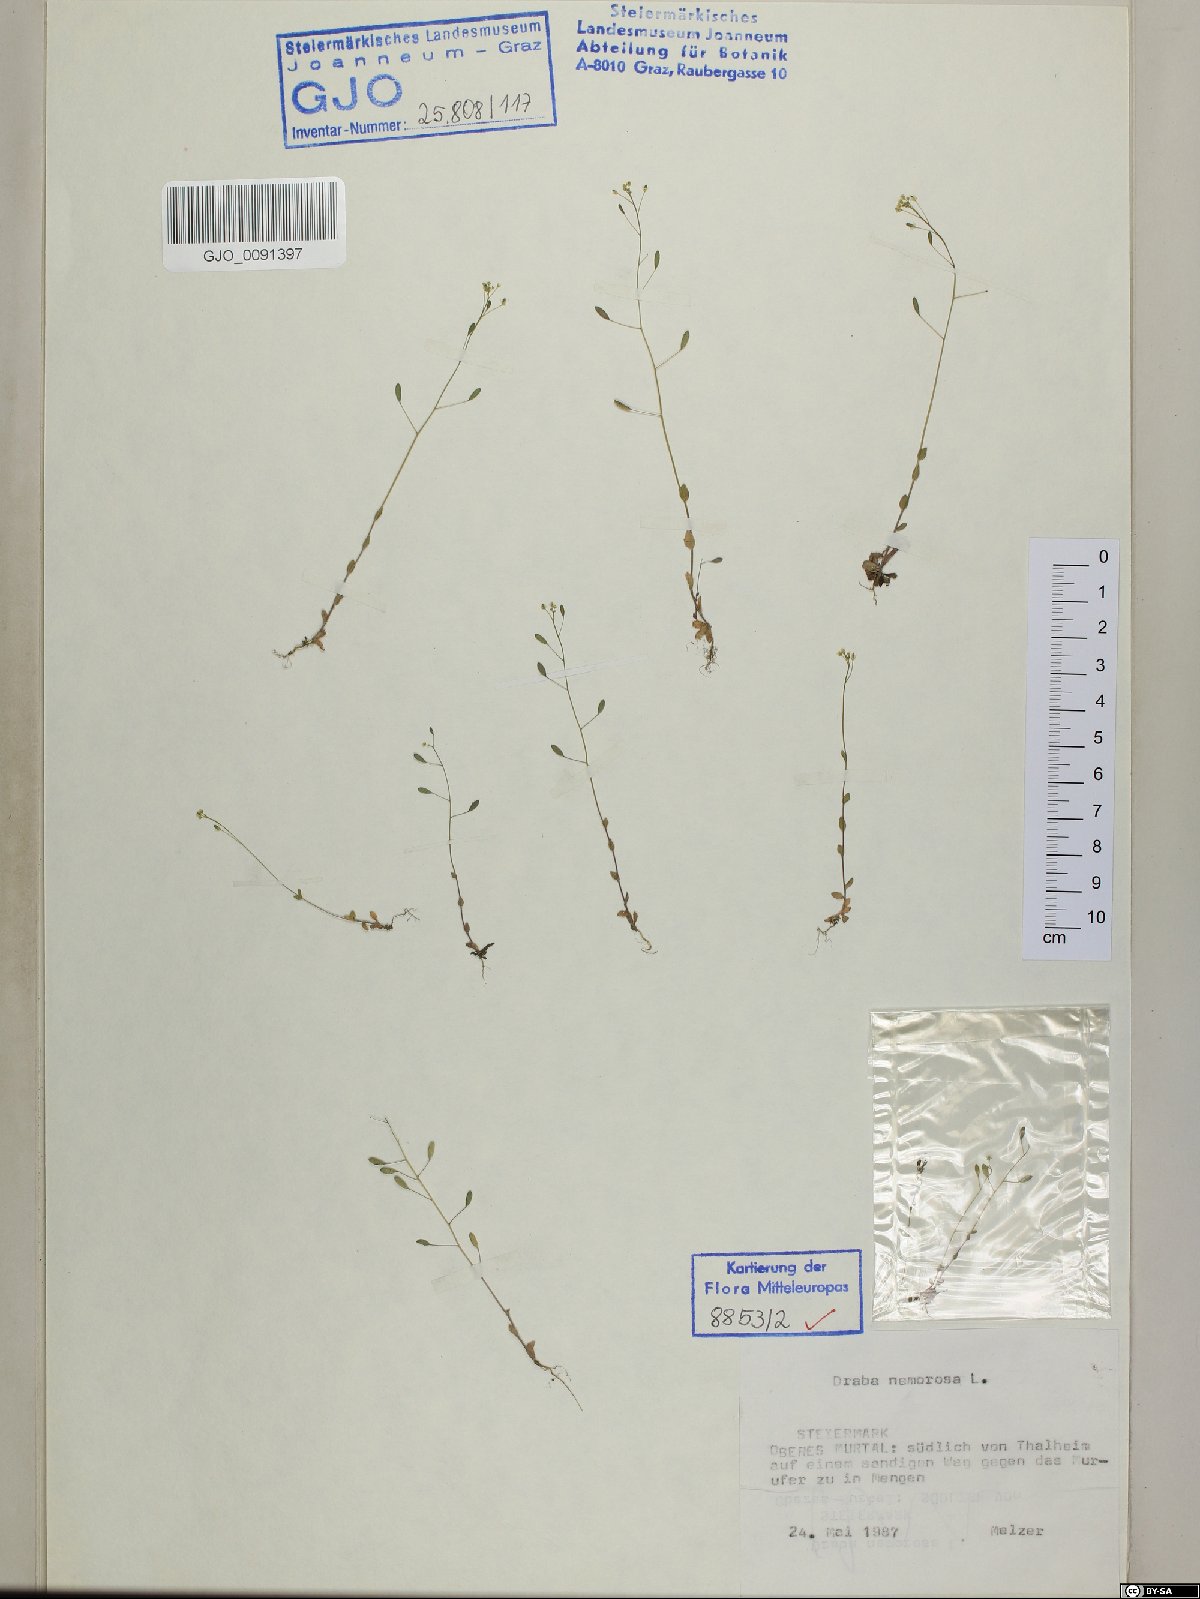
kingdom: Plantae
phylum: Tracheophyta
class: Magnoliopsida
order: Brassicales
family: Brassicaceae
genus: Draba
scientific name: Draba nemorosa
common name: Wood whitlow-grass
